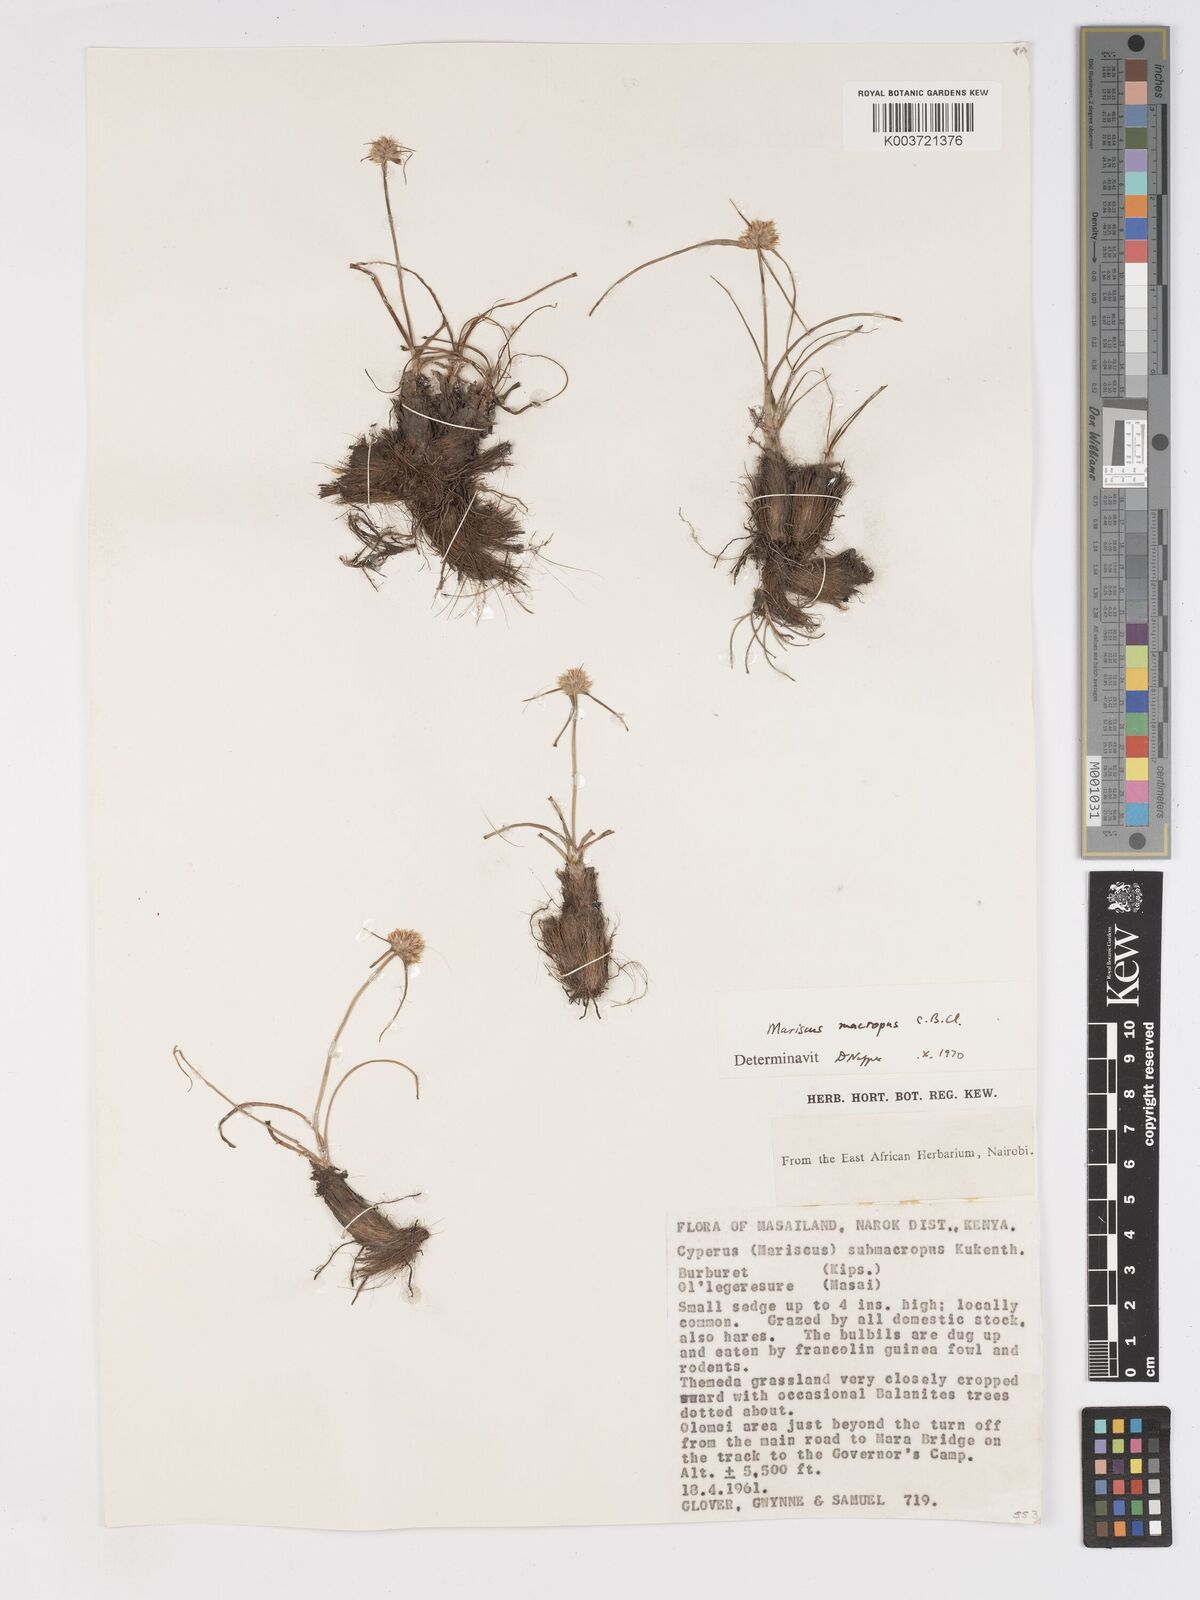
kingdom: Plantae
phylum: Tracheophyta
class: Liliopsida
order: Poales
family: Cyperaceae
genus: Cyperus
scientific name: Cyperus mollipes
